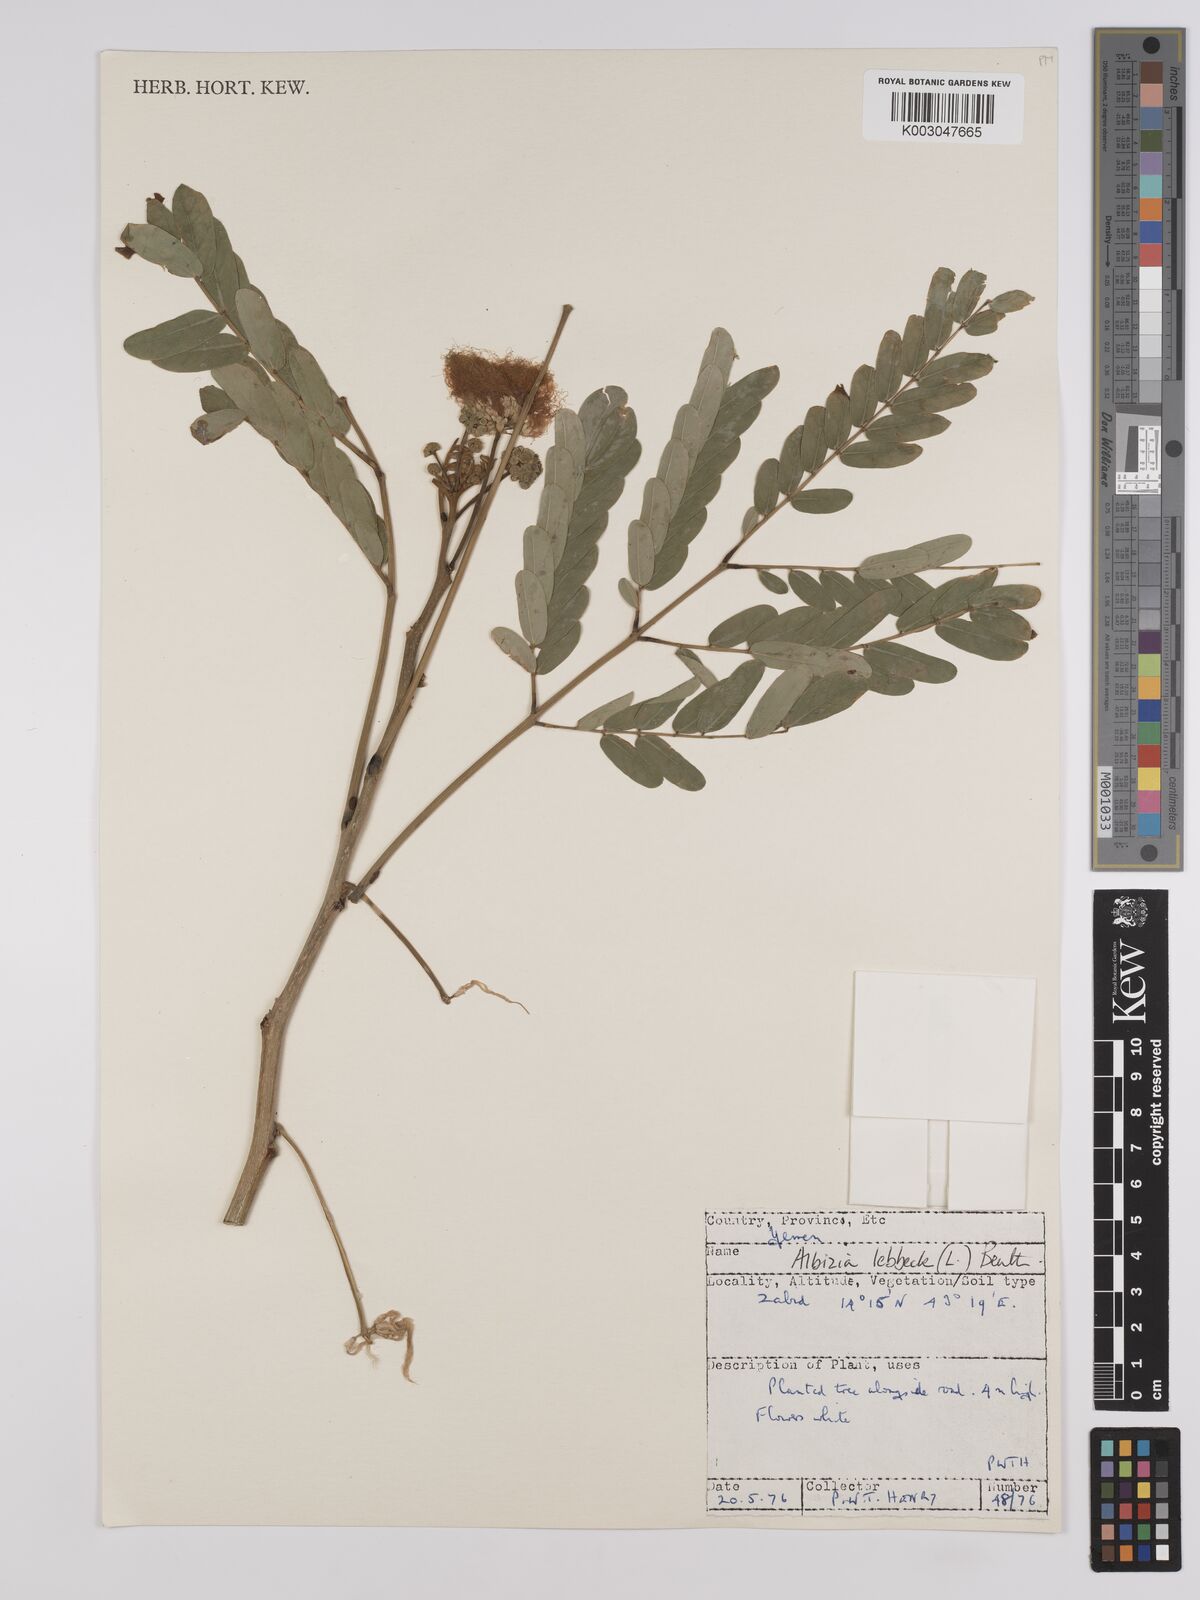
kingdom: Plantae
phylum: Tracheophyta
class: Magnoliopsida
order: Fabales
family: Fabaceae
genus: Albizia
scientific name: Albizia lebbeck
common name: Woman's tongue
